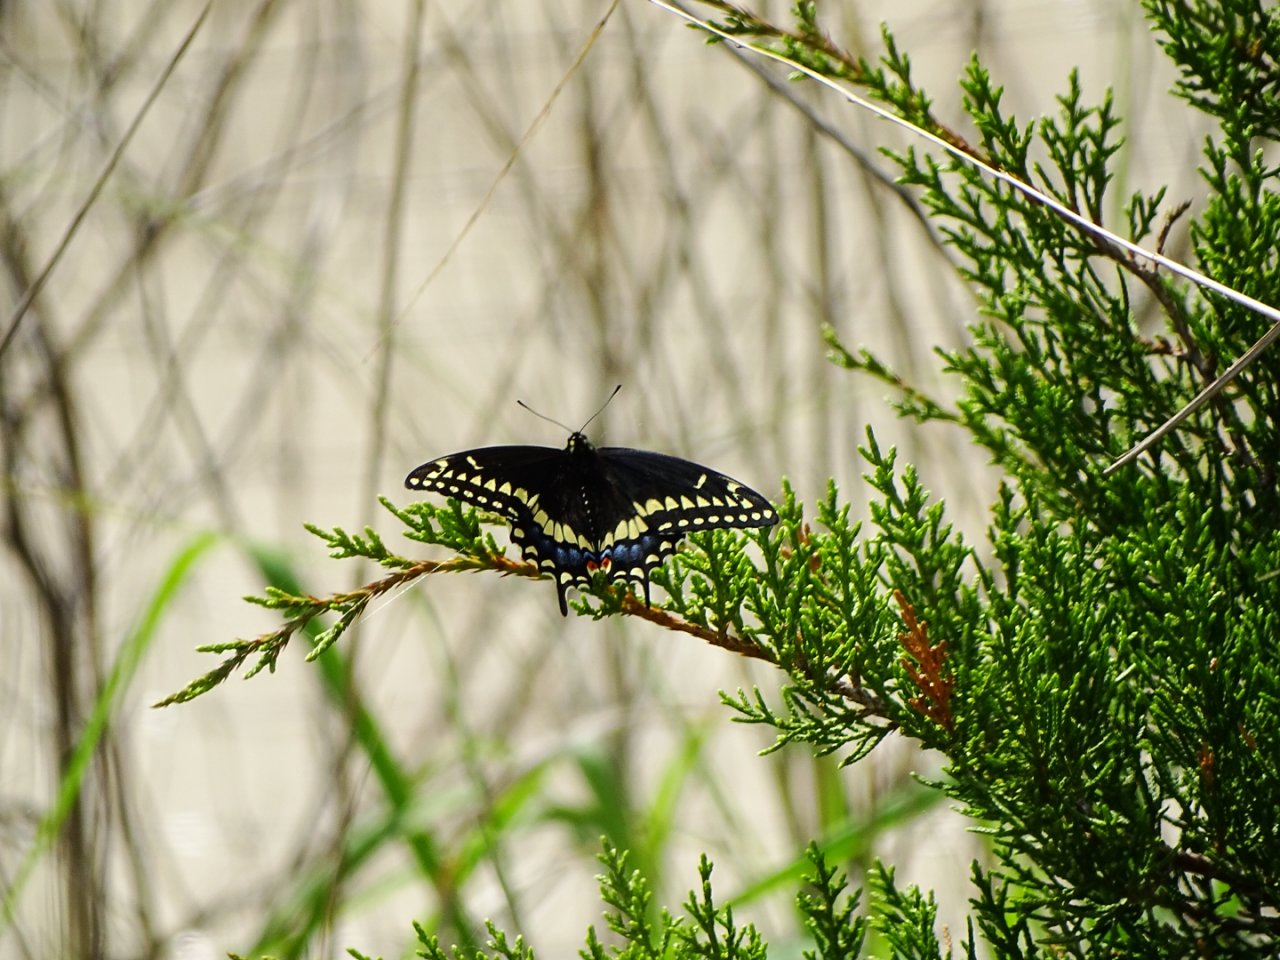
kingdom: Animalia
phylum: Arthropoda
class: Insecta
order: Lepidoptera
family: Papilionidae
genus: Papilio
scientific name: Papilio polyxenes
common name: Black Swallowtail
